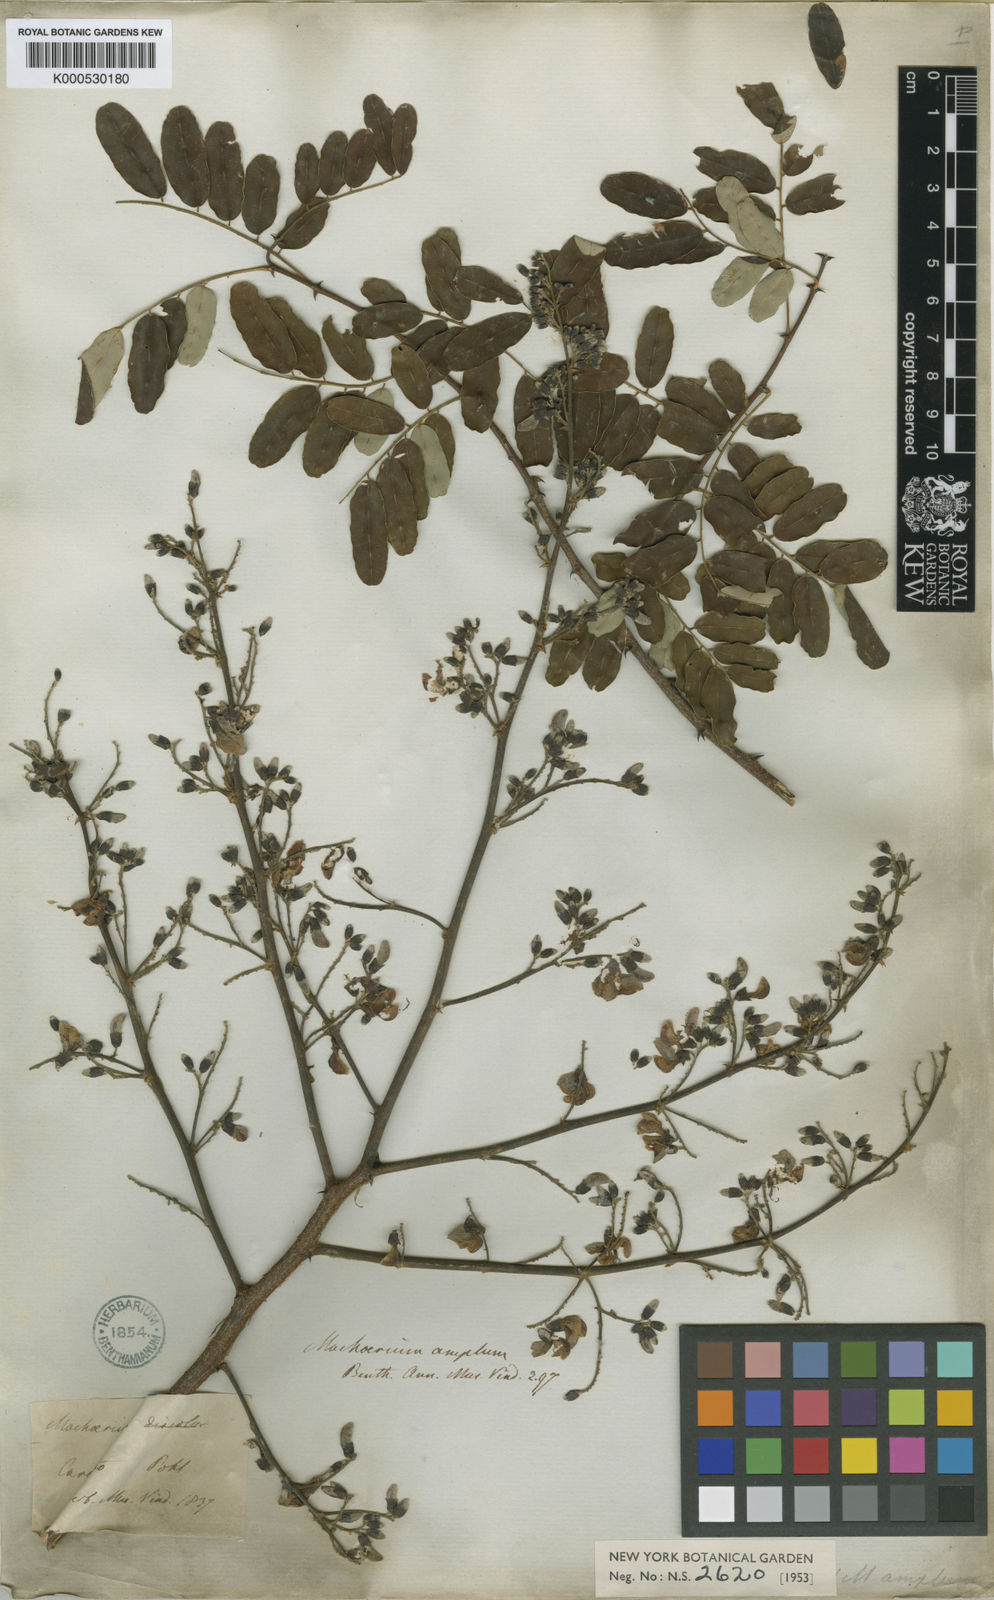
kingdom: Plantae
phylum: Tracheophyta
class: Magnoliopsida
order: Fabales
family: Fabaceae
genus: Machaerium
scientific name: Machaerium amplum
